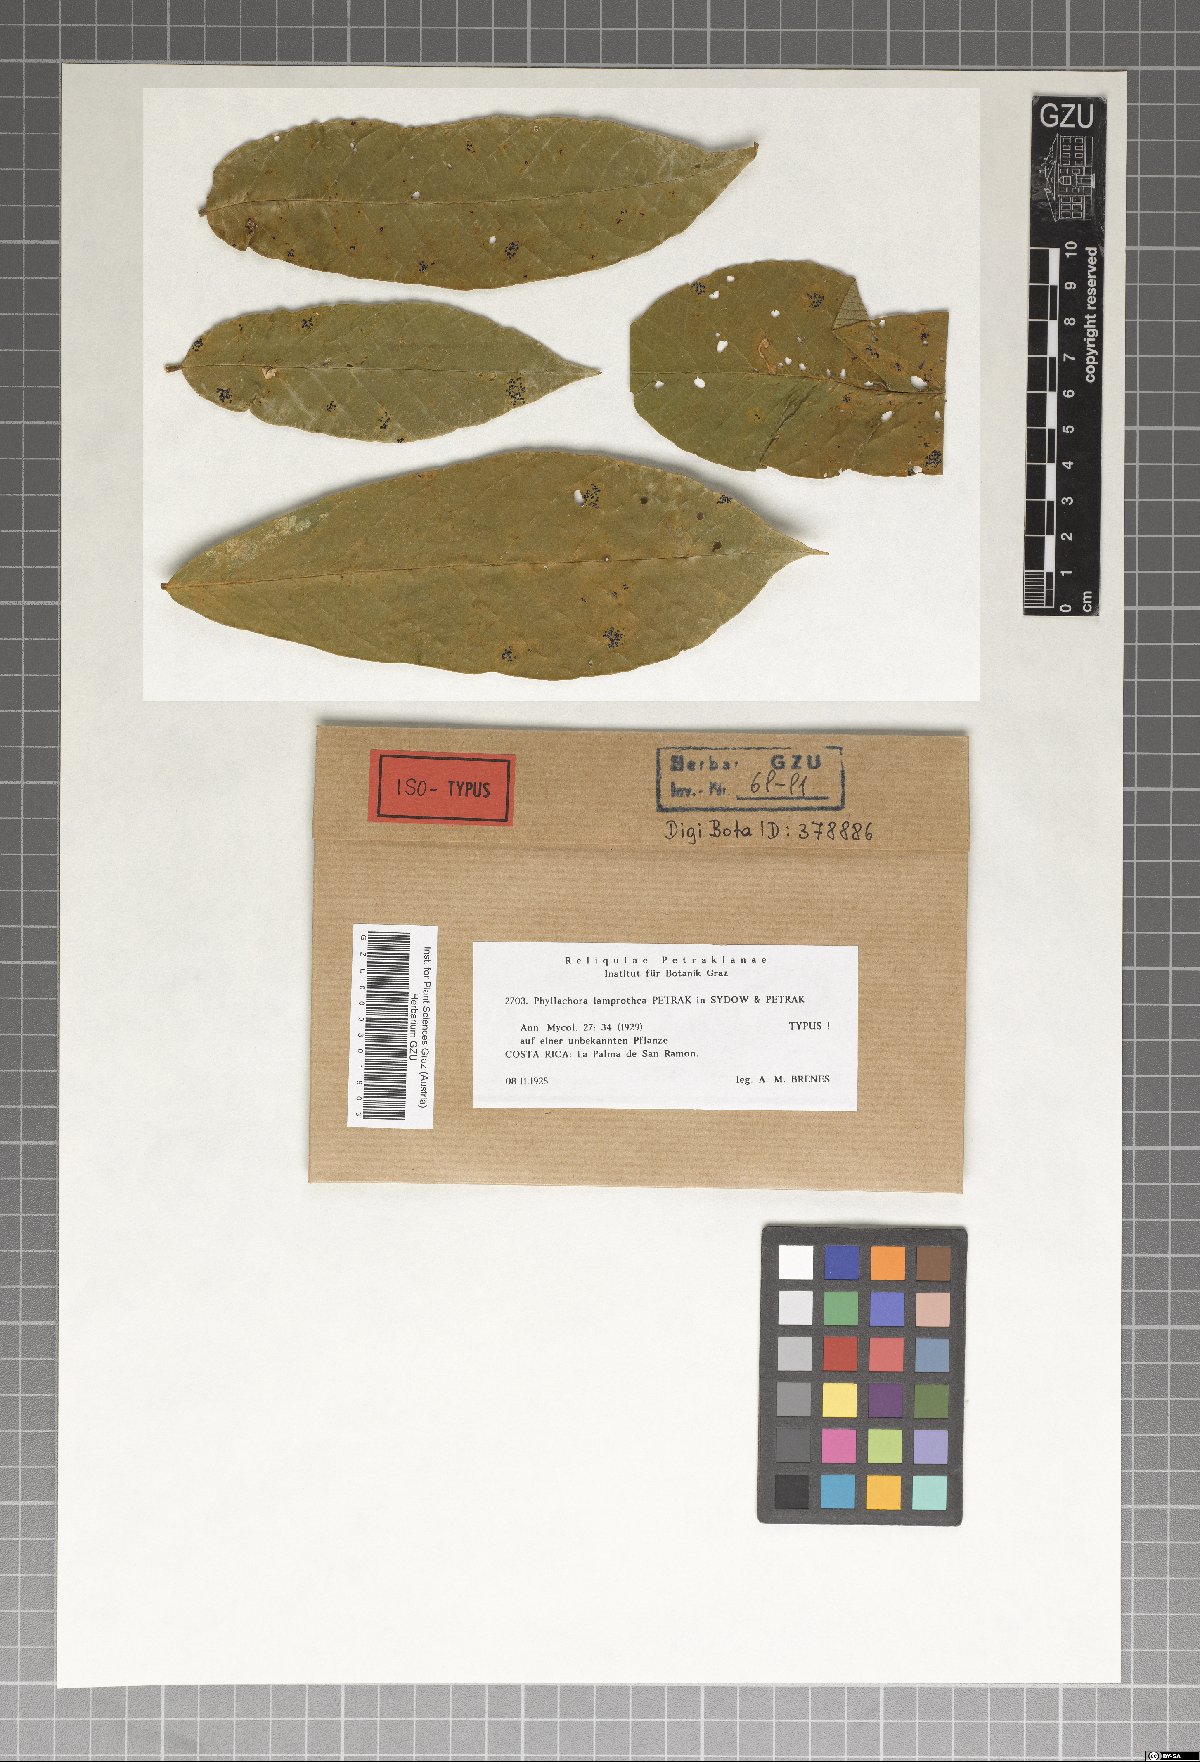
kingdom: Fungi
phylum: Ascomycota
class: Sordariomycetes
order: Phyllachorales
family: Phyllachoraceae
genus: Phyllachora
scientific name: Phyllachora lamprothea
